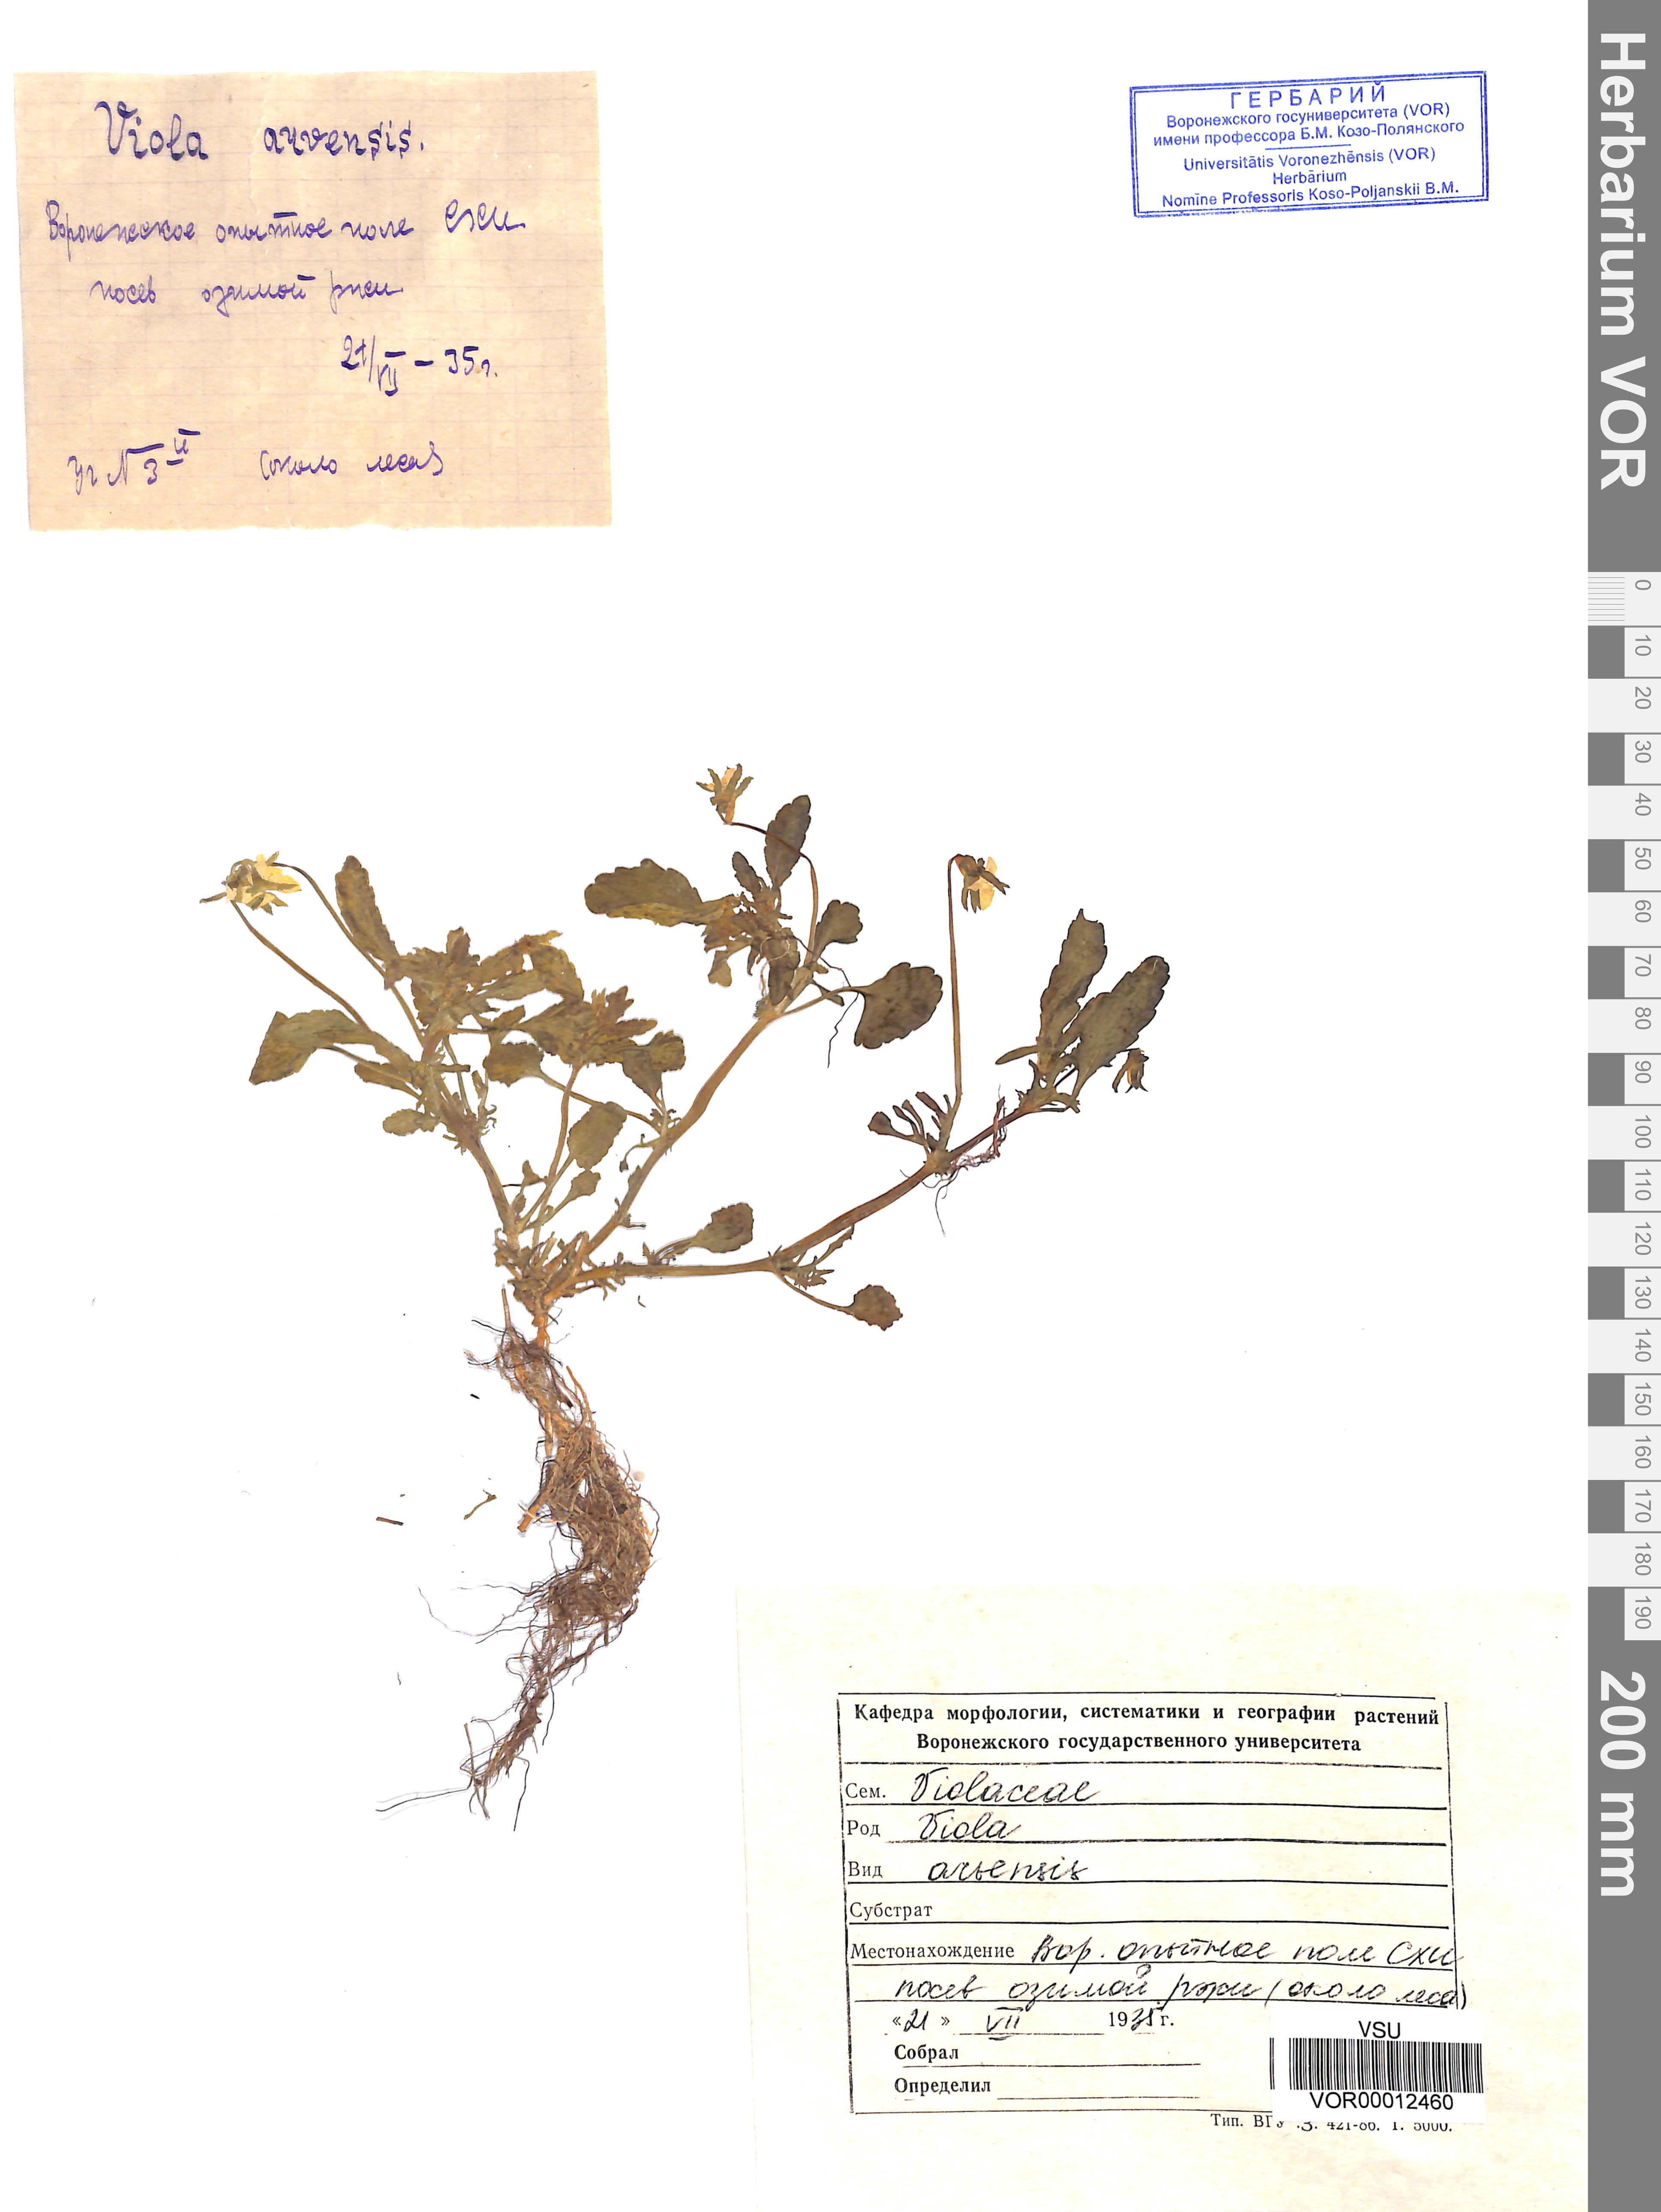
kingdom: Plantae
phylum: Tracheophyta
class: Magnoliopsida
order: Malpighiales
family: Violaceae
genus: Viola
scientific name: Viola arvensis
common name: Field pansy
